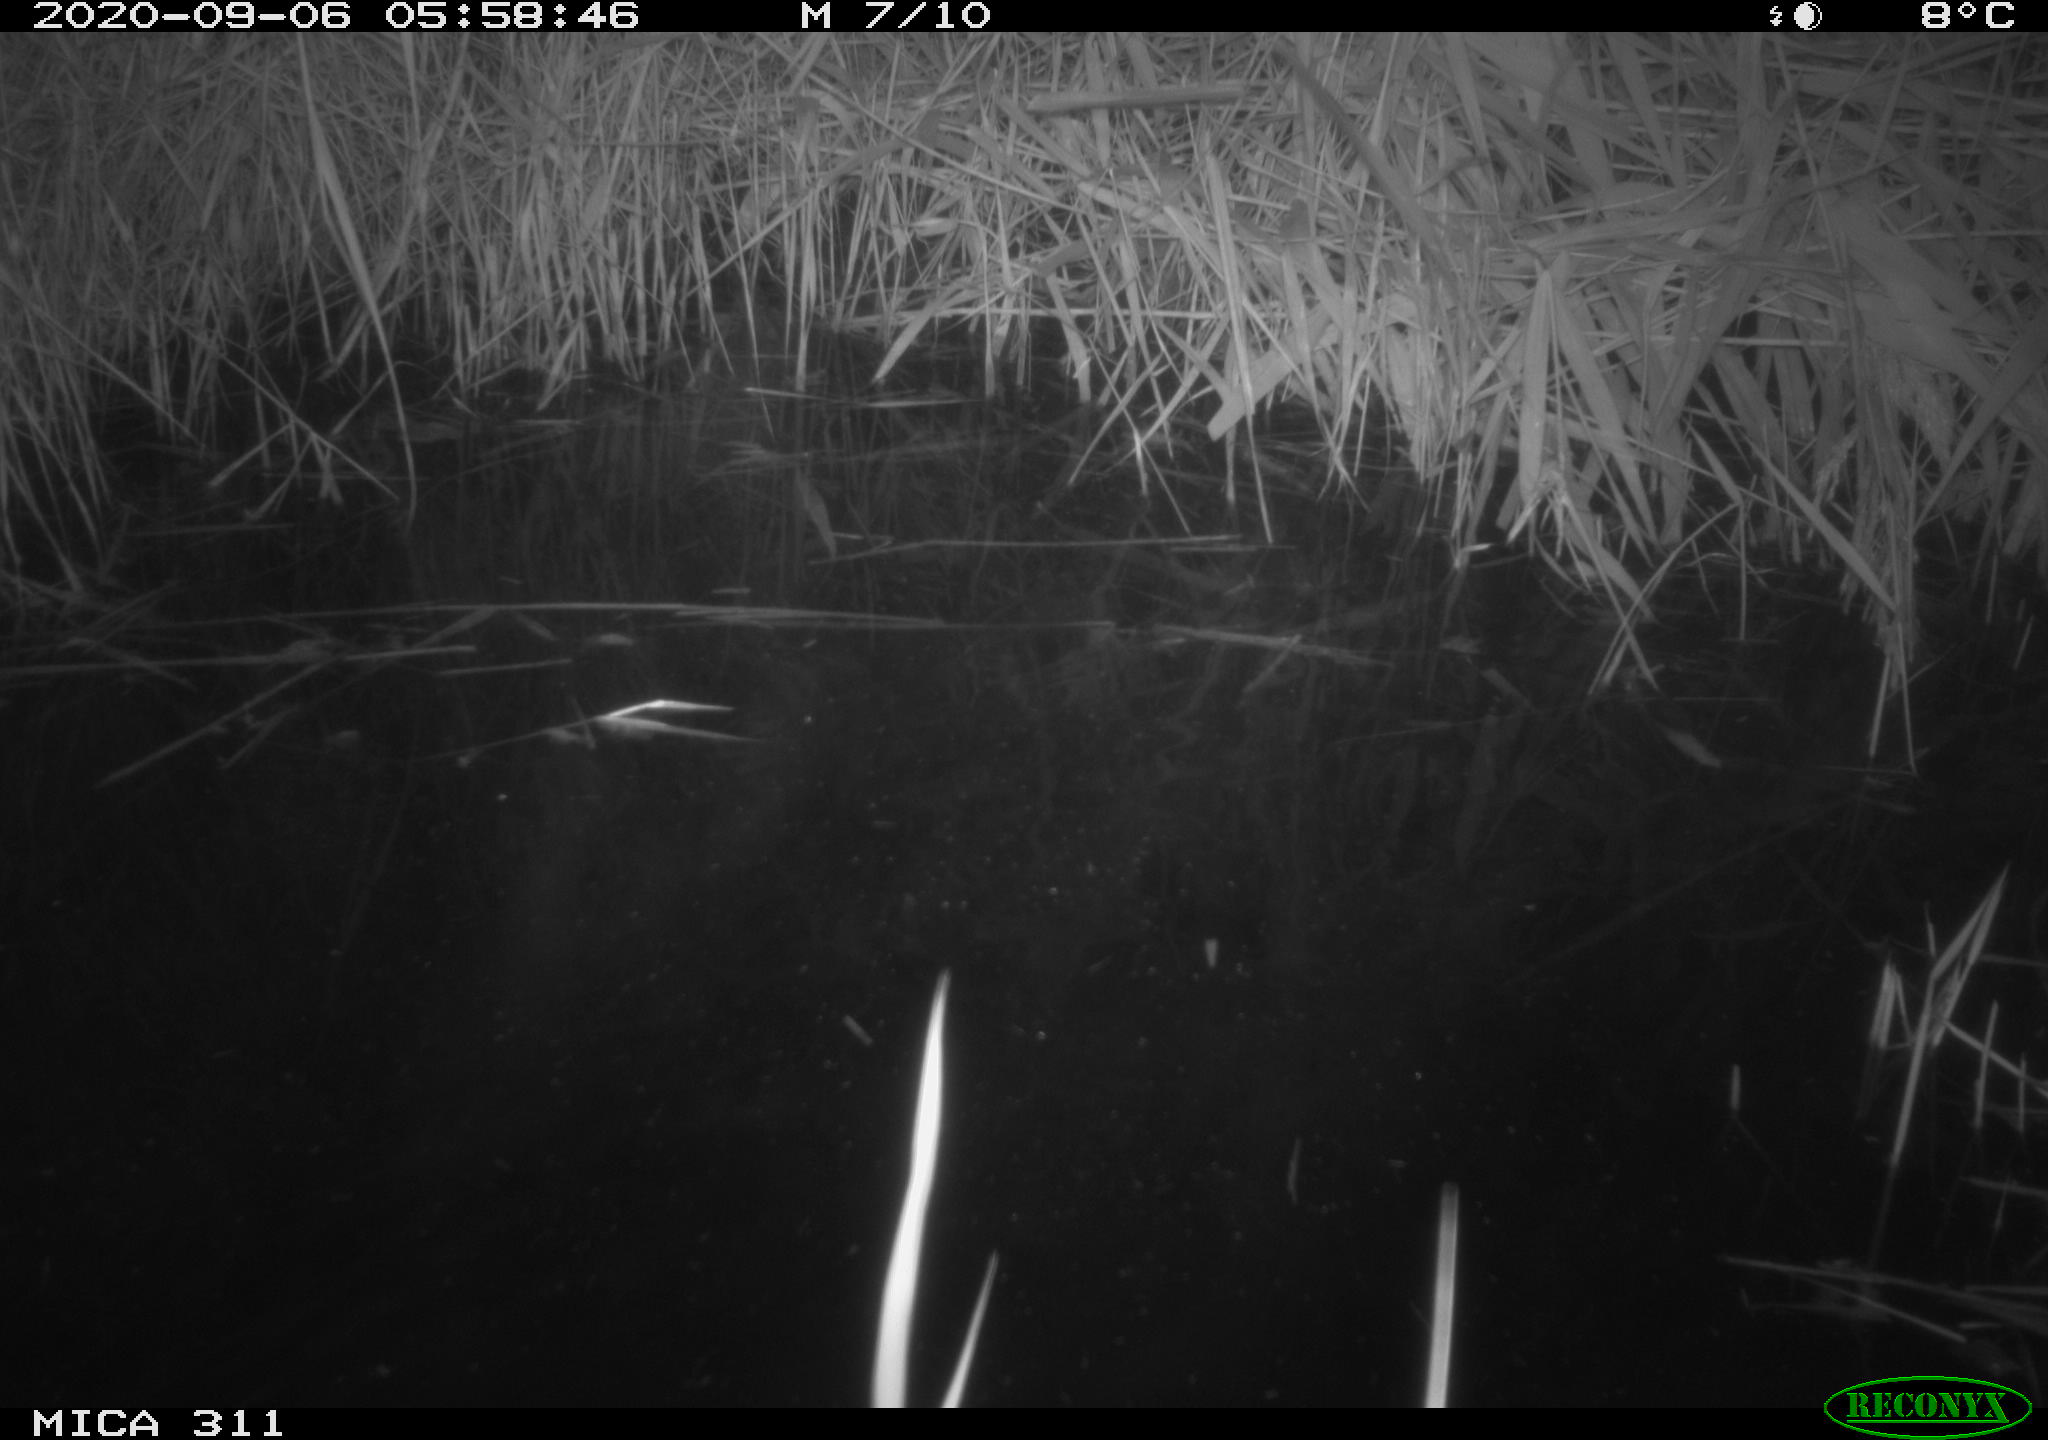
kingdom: Animalia
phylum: Chordata
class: Mammalia
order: Rodentia
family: Muridae
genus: Rattus
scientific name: Rattus norvegicus
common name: Brown rat
